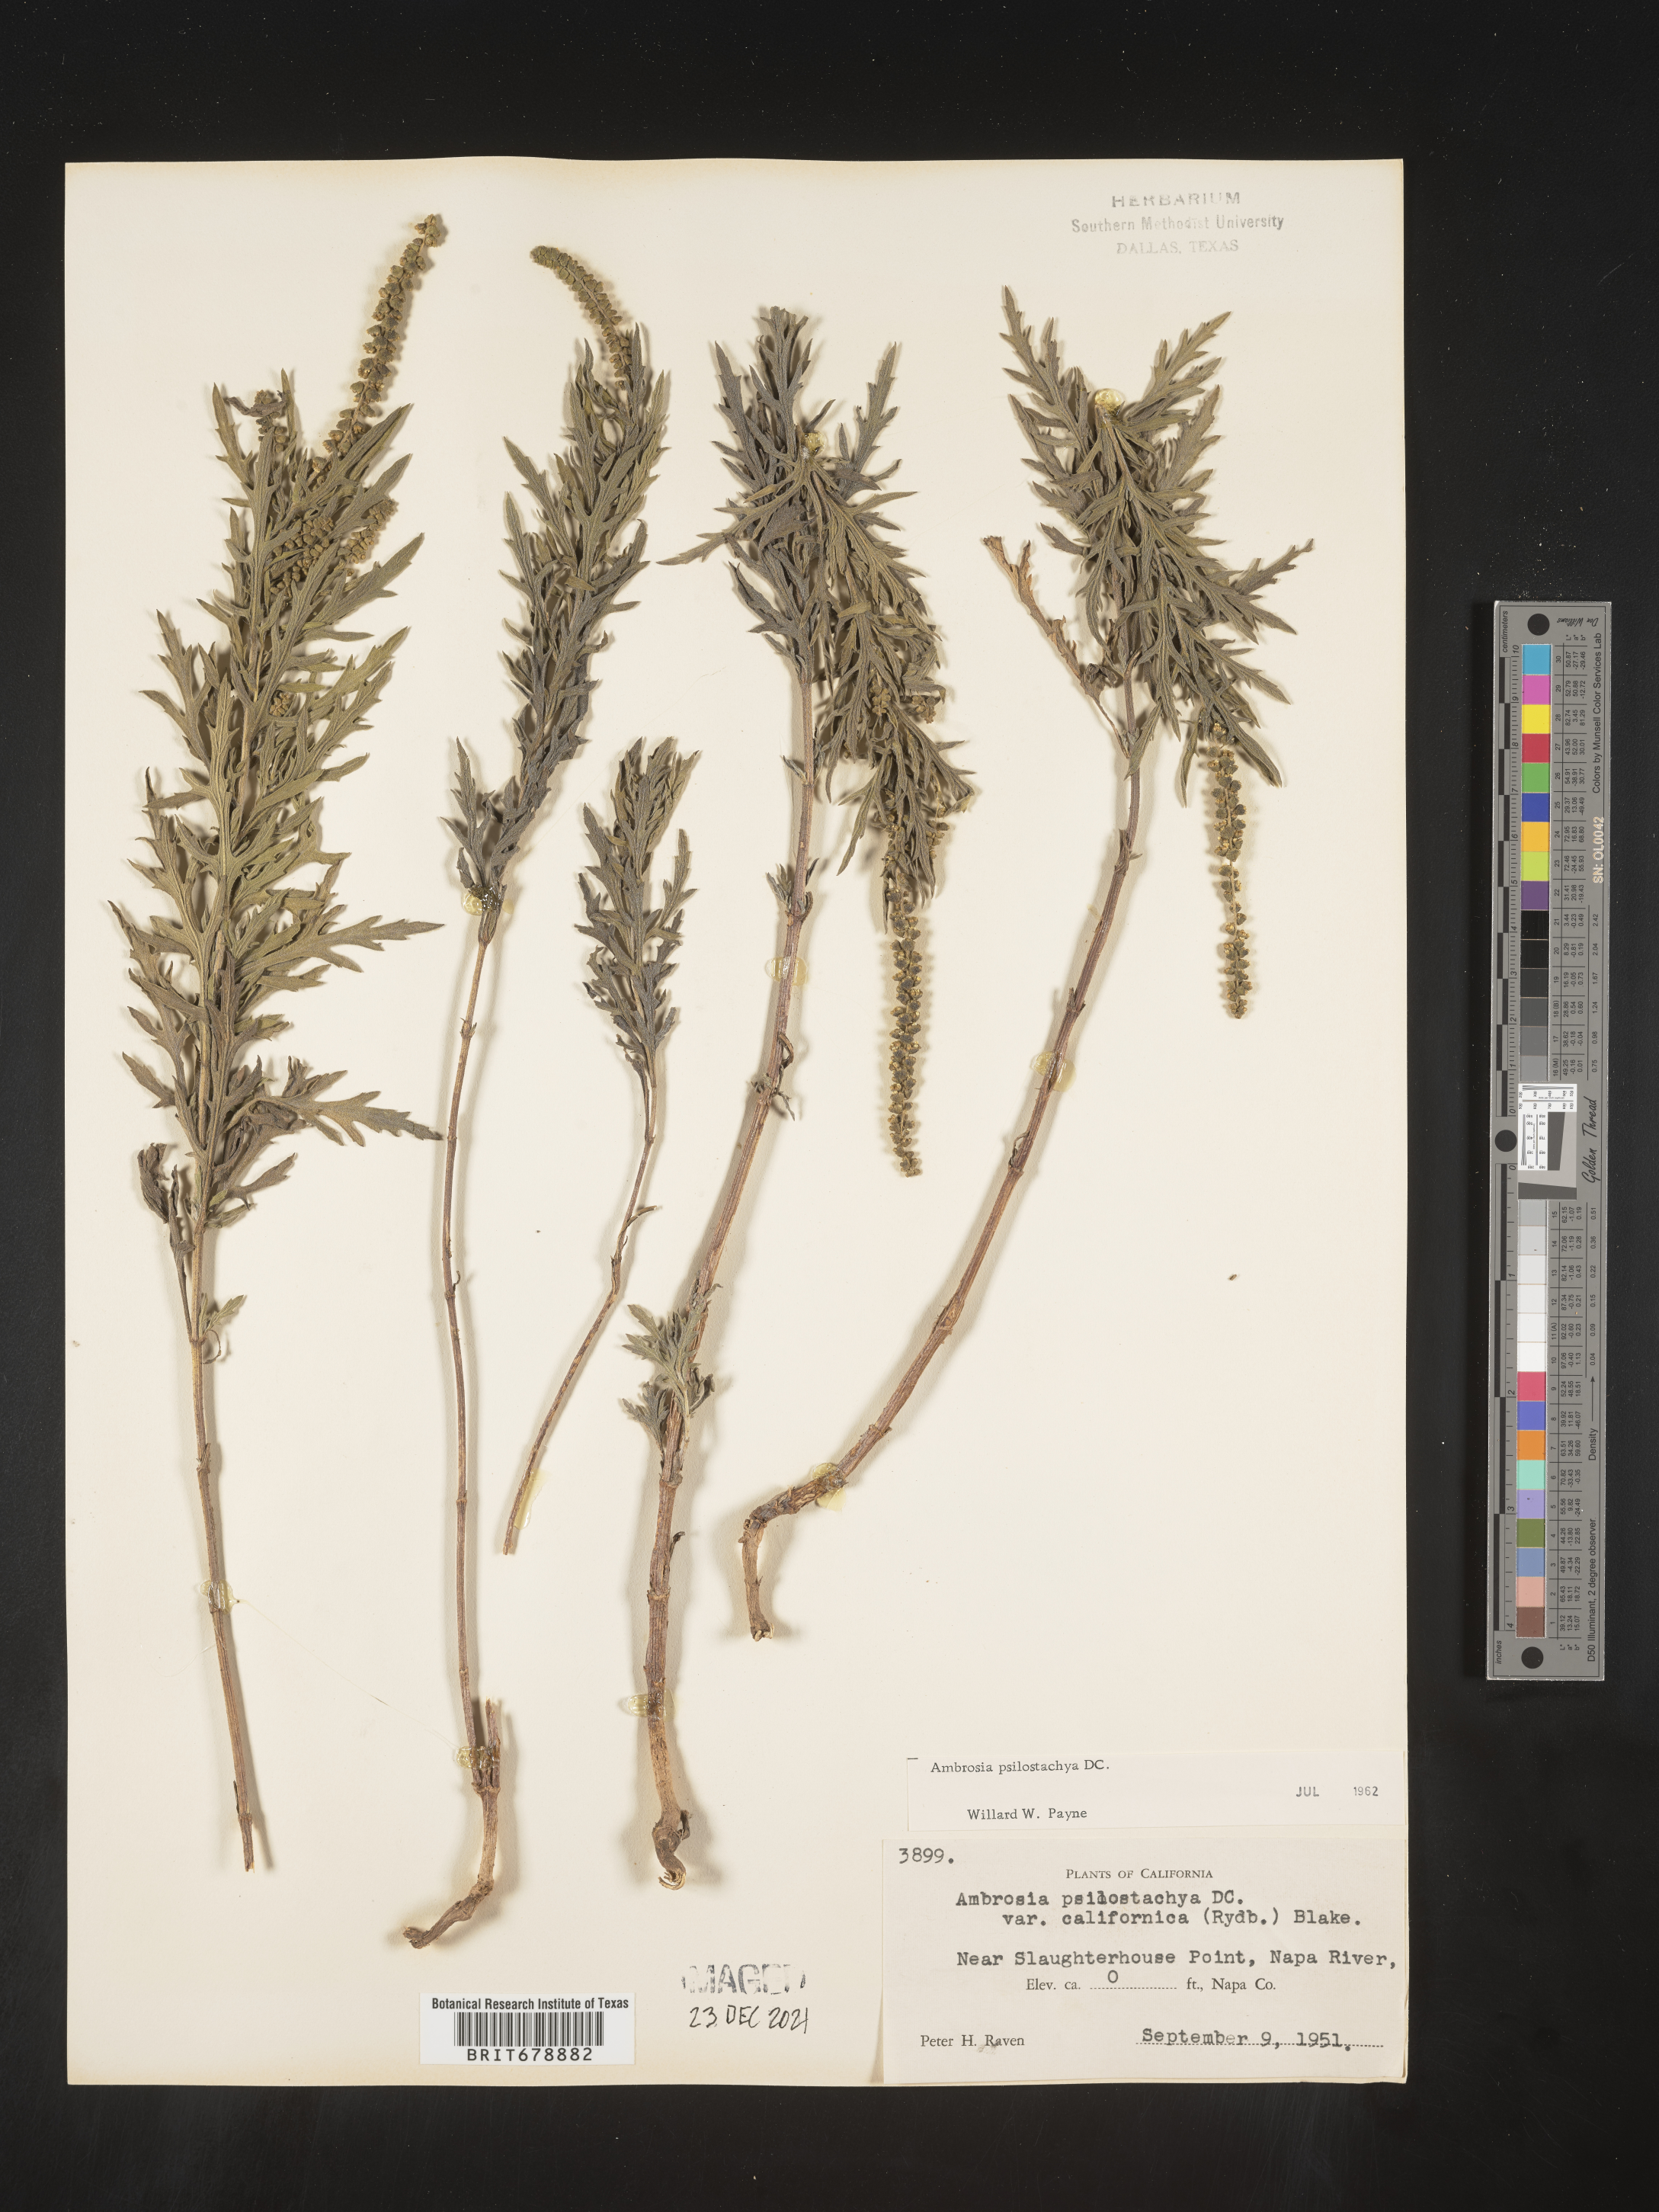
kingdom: Plantae
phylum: Tracheophyta
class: Magnoliopsida
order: Asterales
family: Asteraceae
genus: Ambrosia
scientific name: Ambrosia psilostachya
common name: Perennial ragweed
